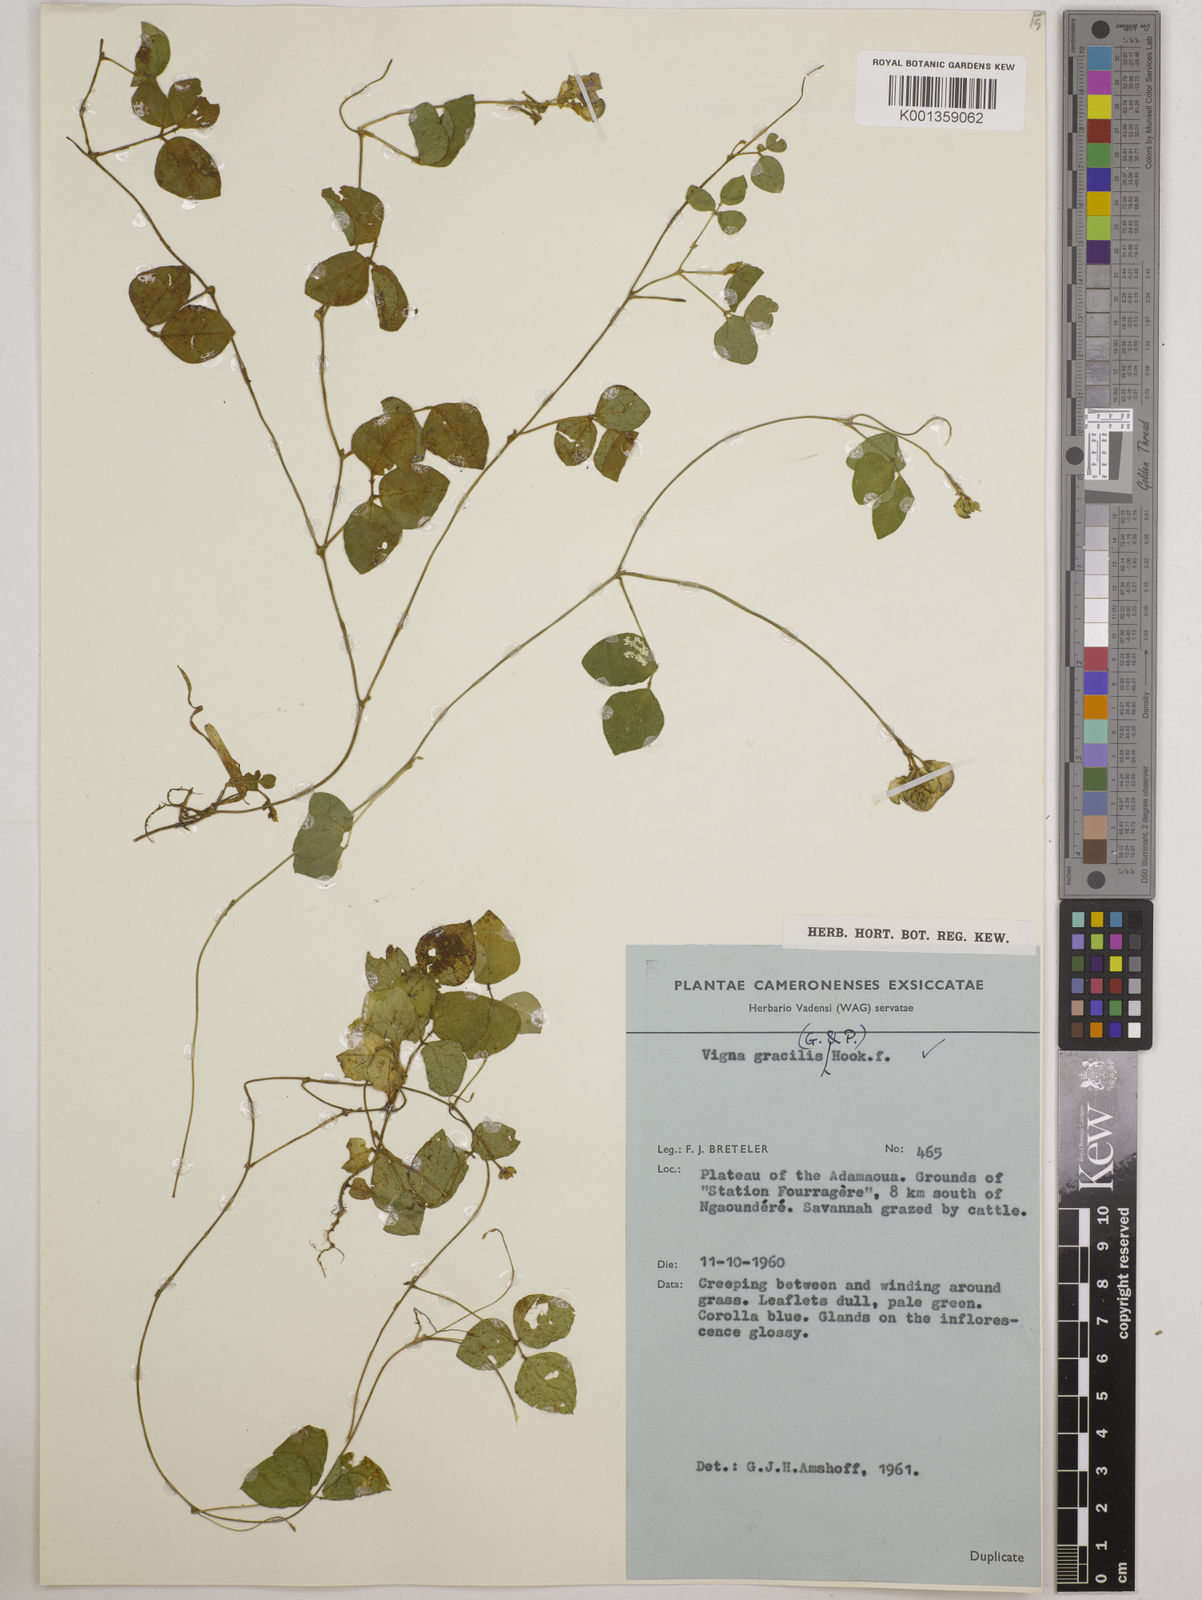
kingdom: Plantae
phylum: Tracheophyta
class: Magnoliopsida
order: Fabales
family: Fabaceae
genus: Vigna
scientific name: Vigna gracilis
